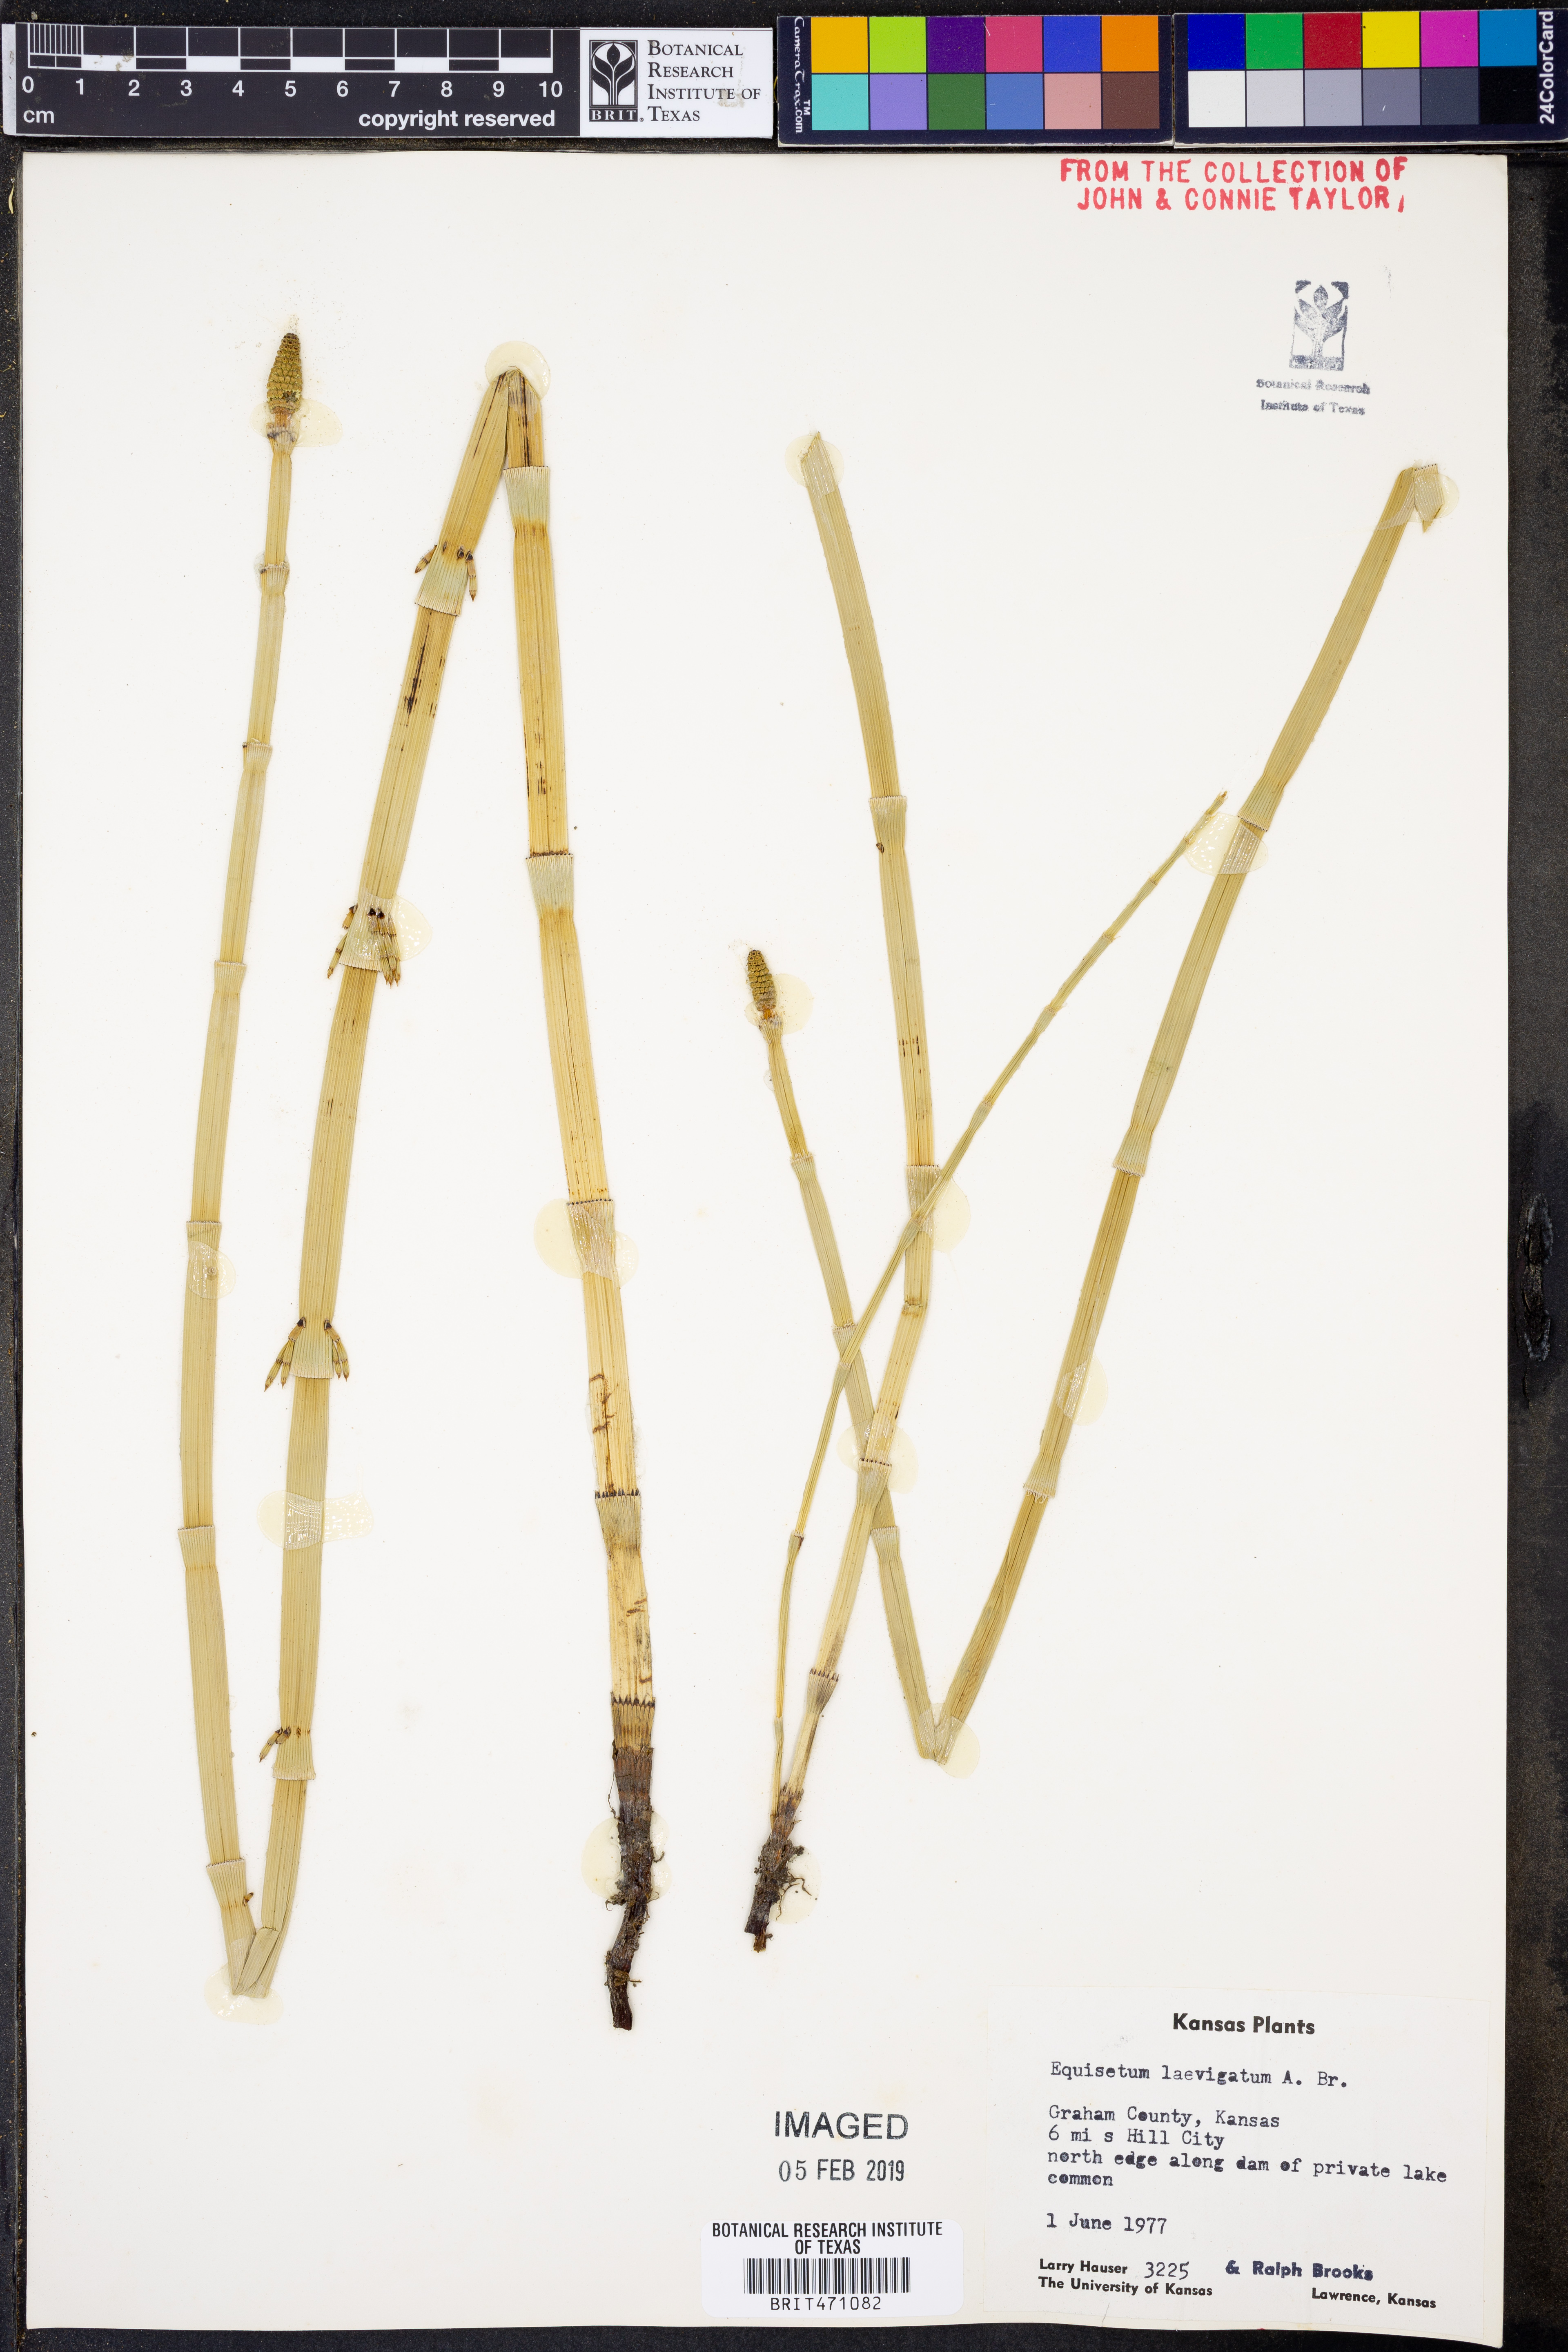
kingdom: Plantae
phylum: Tracheophyta
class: Polypodiopsida
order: Equisetales
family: Equisetaceae
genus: Equisetum
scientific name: Equisetum laevigatum
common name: Smooth scouring-rush
